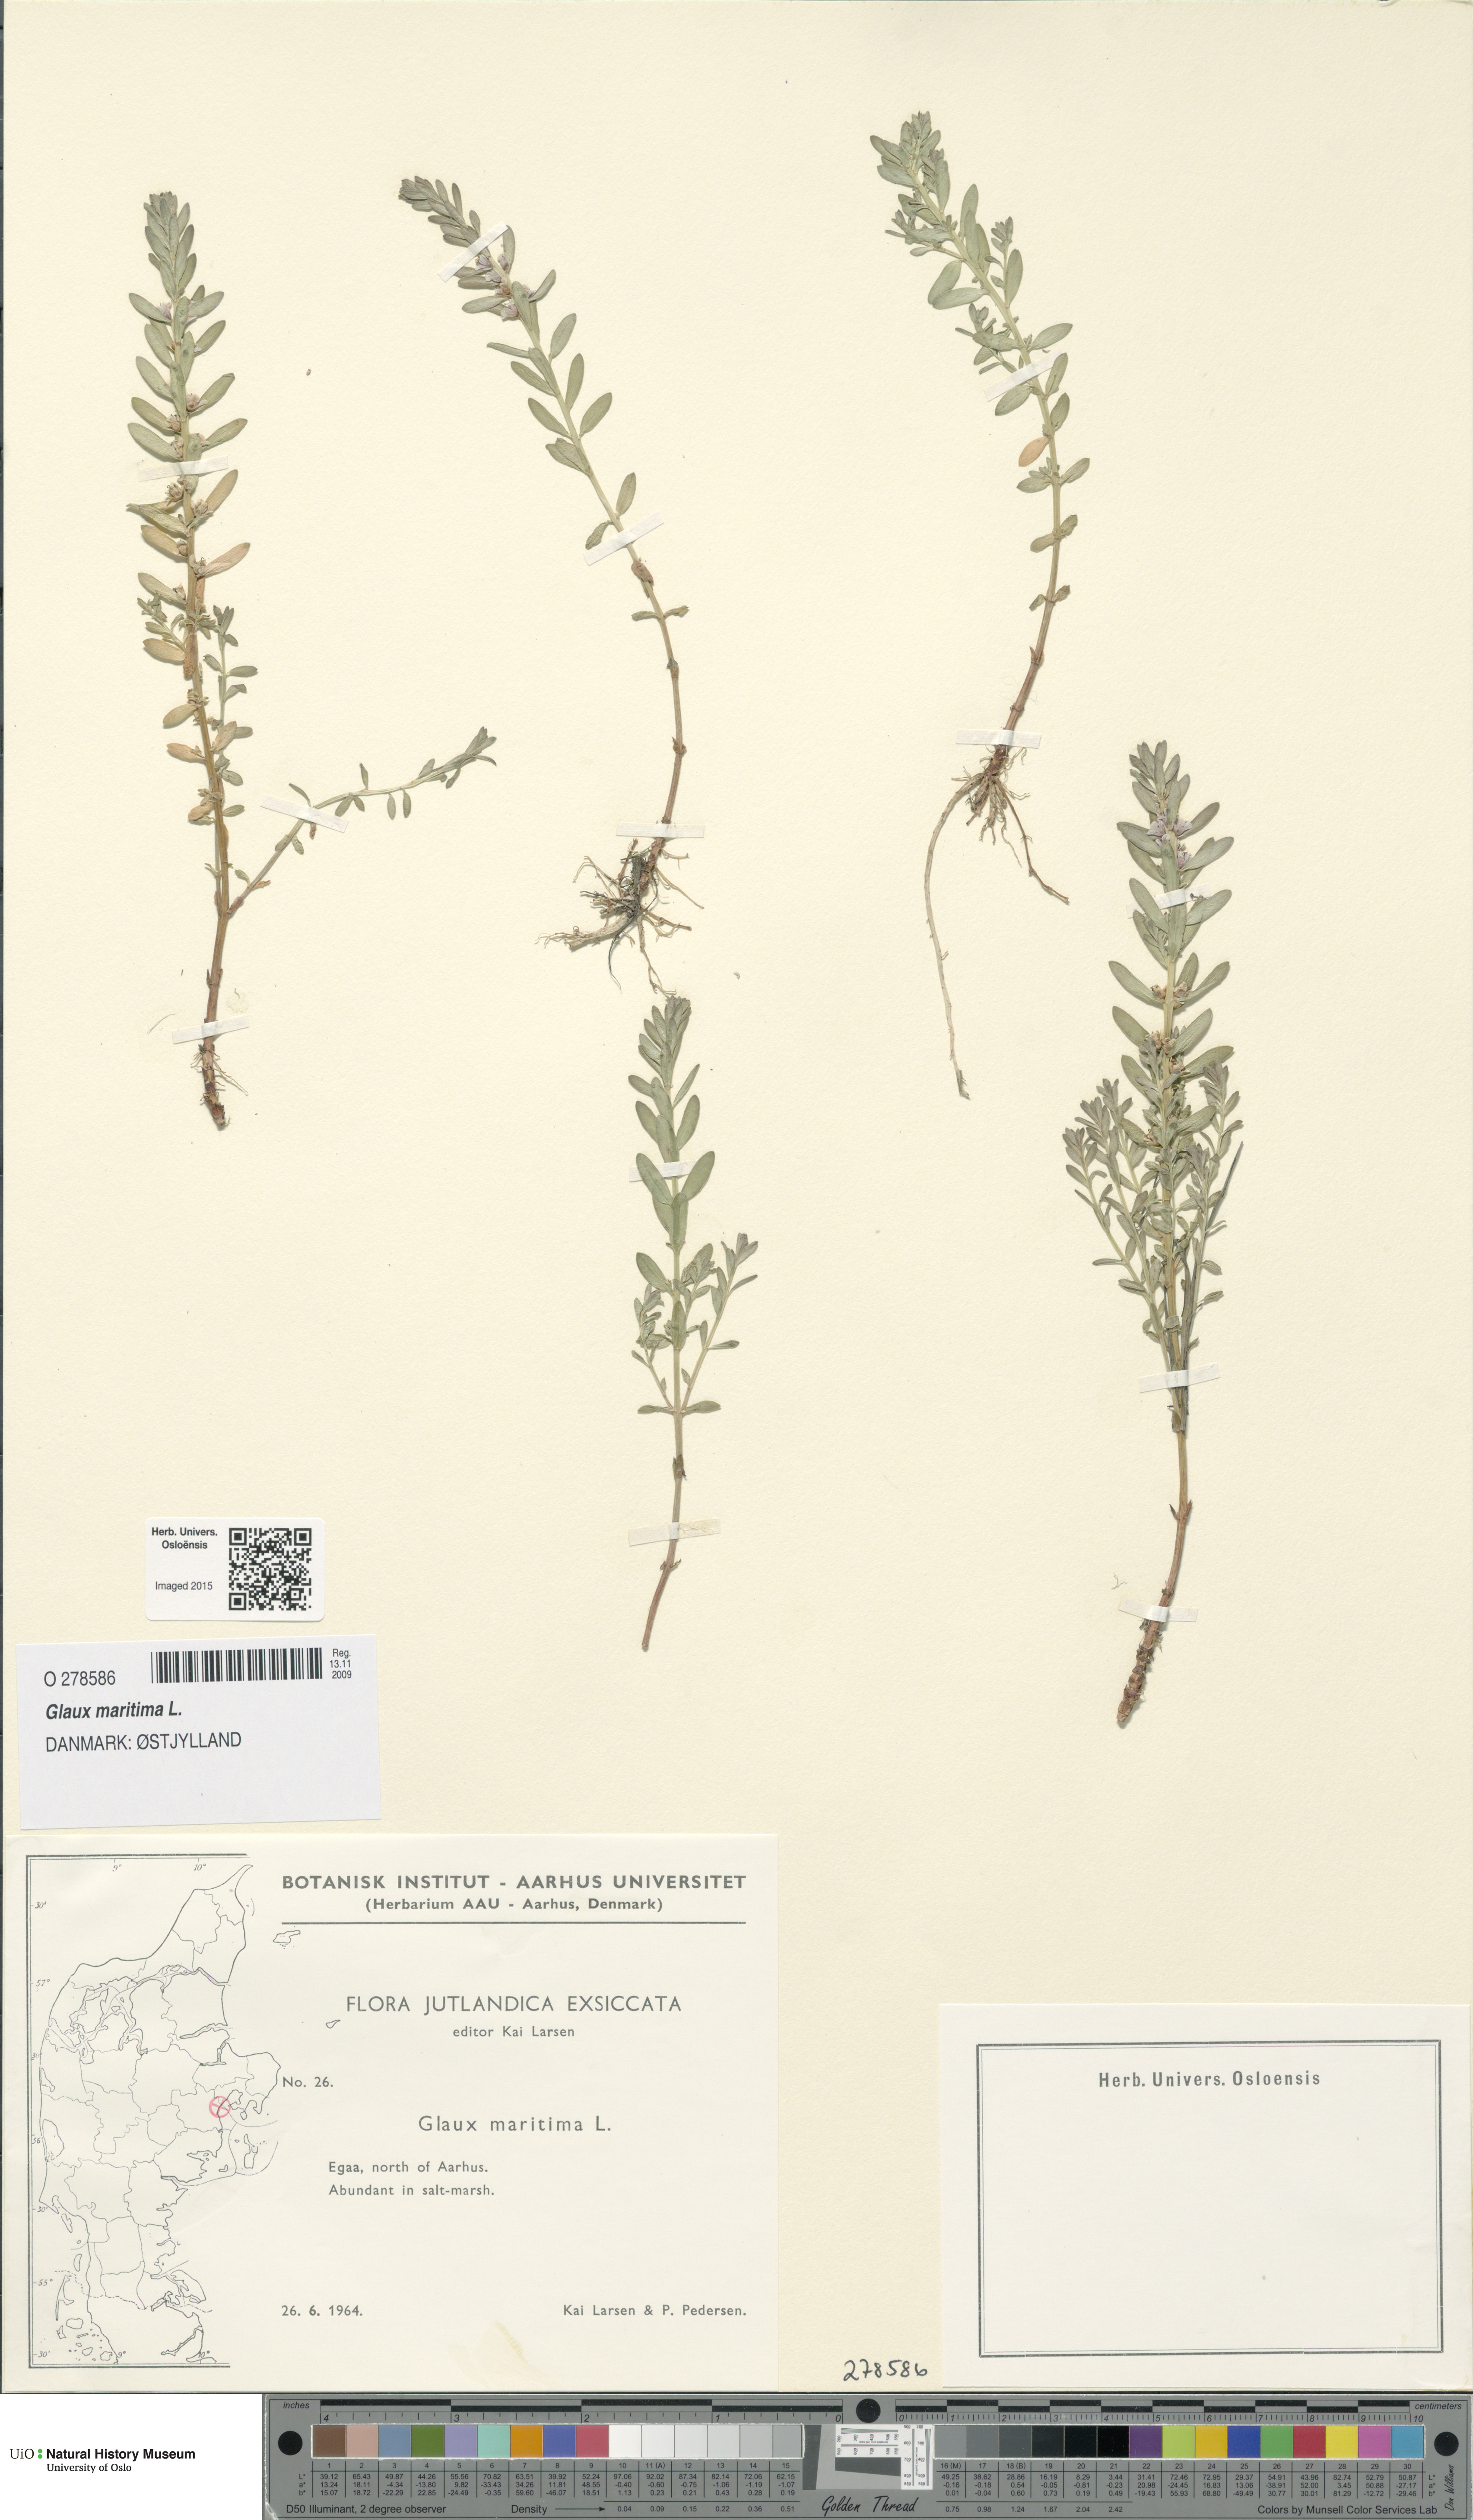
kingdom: Plantae
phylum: Tracheophyta
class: Magnoliopsida
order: Ericales
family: Primulaceae
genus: Lysimachia
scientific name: Lysimachia maritima
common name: Sea milkwort
